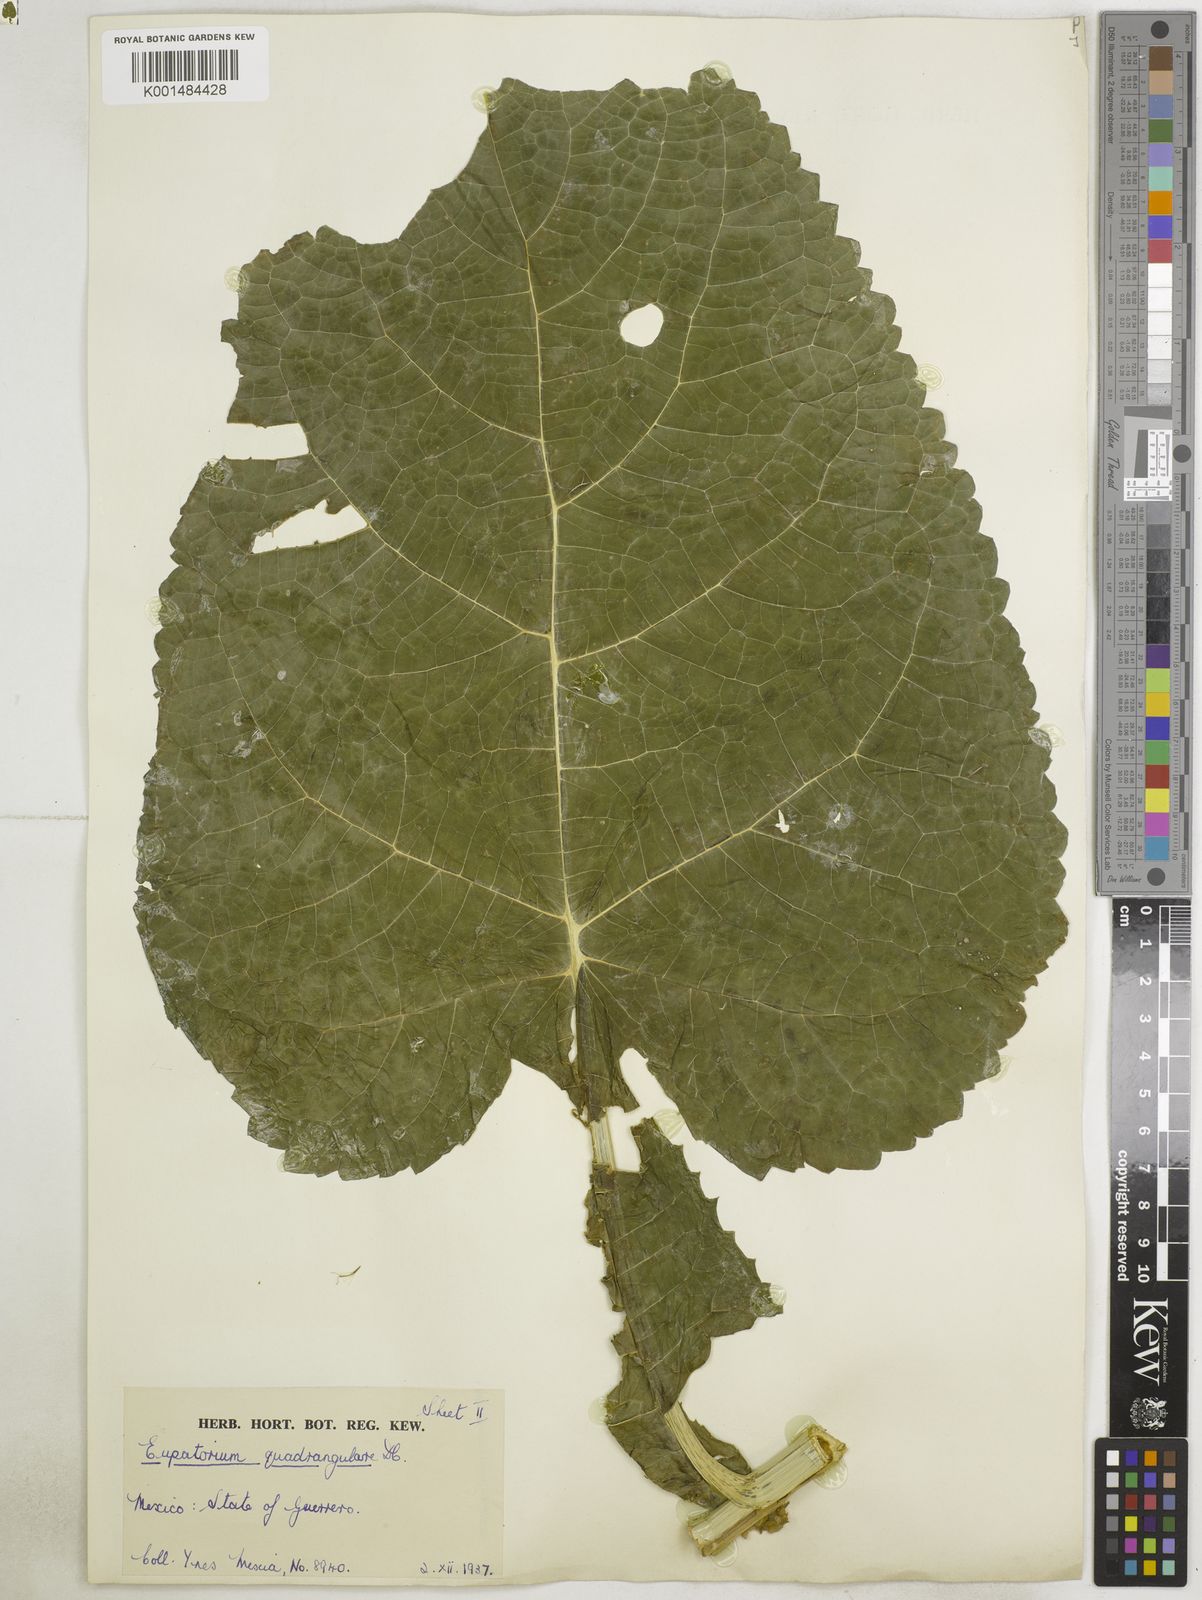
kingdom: Plantae
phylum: Tracheophyta
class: Magnoliopsida
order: Asterales
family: Asteraceae
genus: Critonia
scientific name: Critonia quadrangularis
